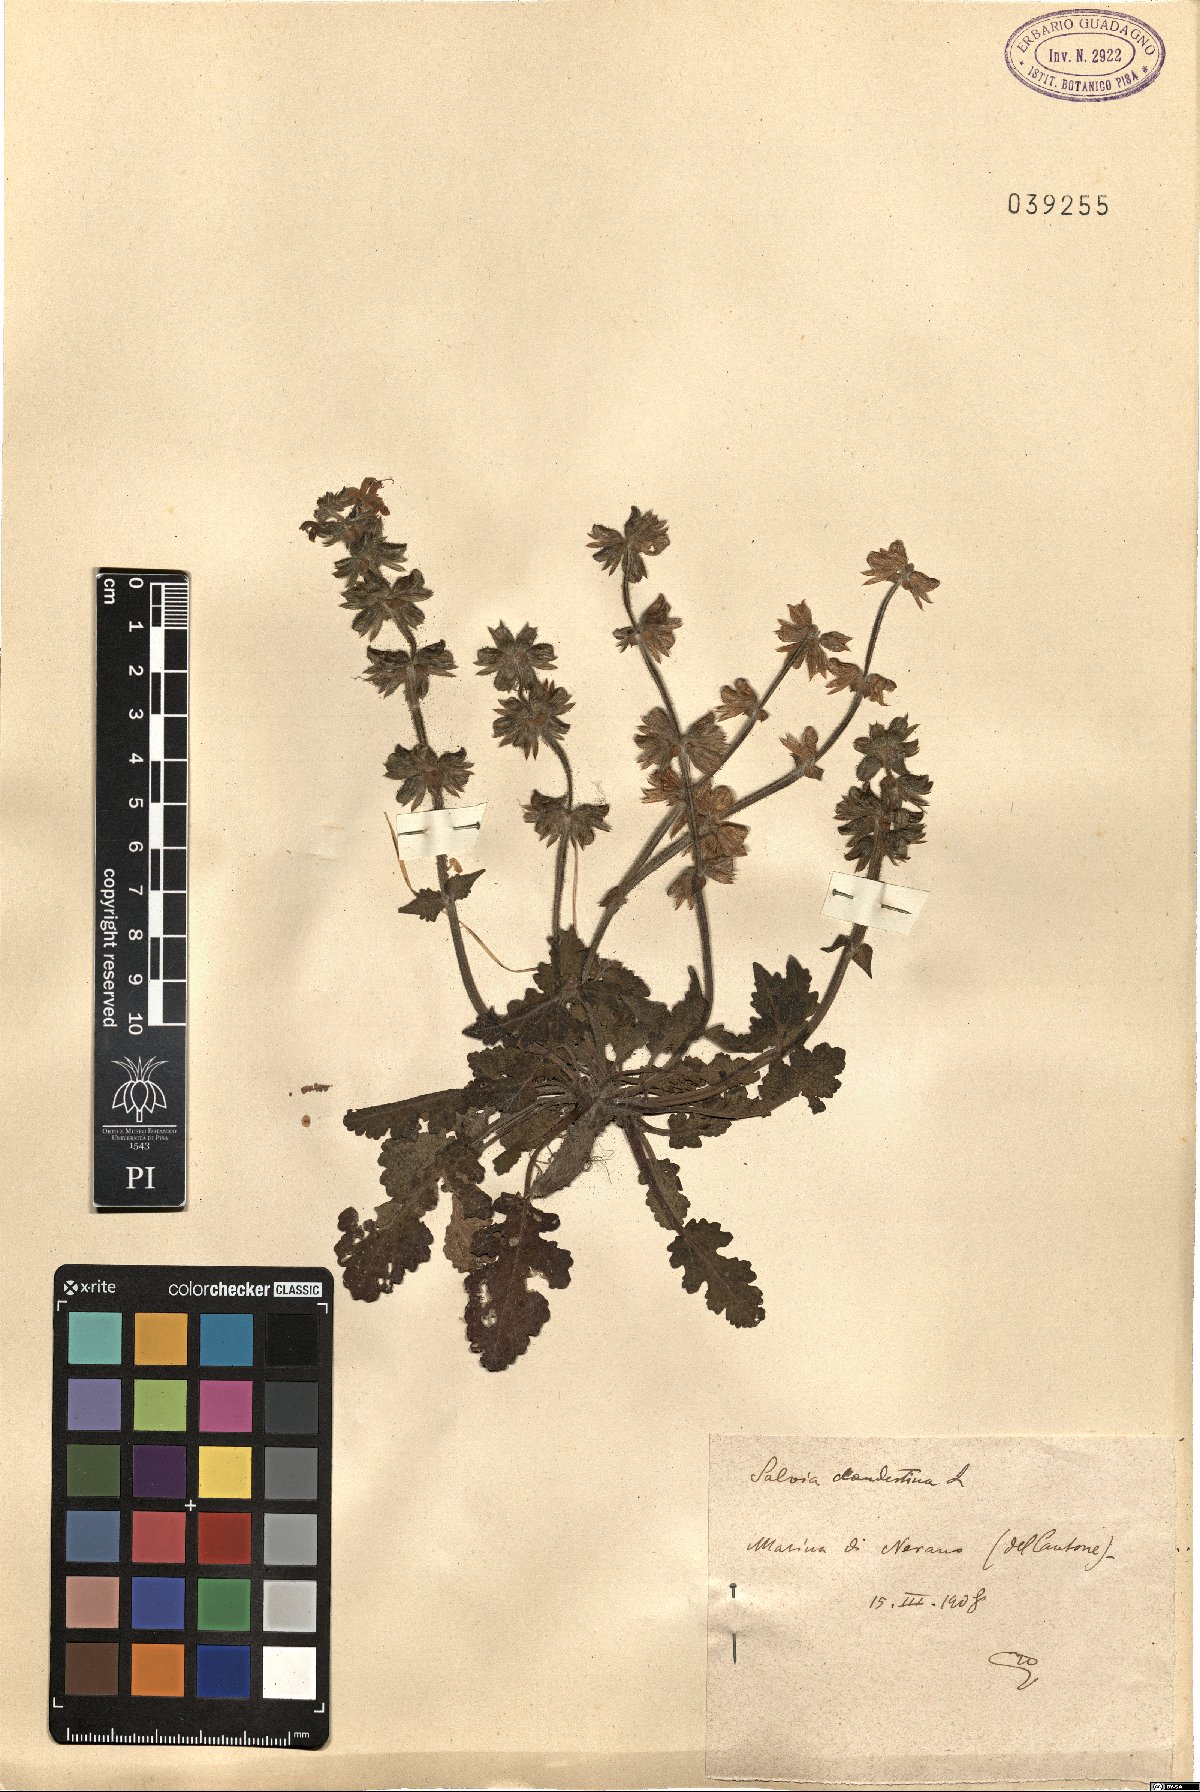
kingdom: Plantae
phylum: Tracheophyta
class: Magnoliopsida
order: Lamiales
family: Lamiaceae
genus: Salvia
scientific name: Salvia verbenaca
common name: Wild clary
